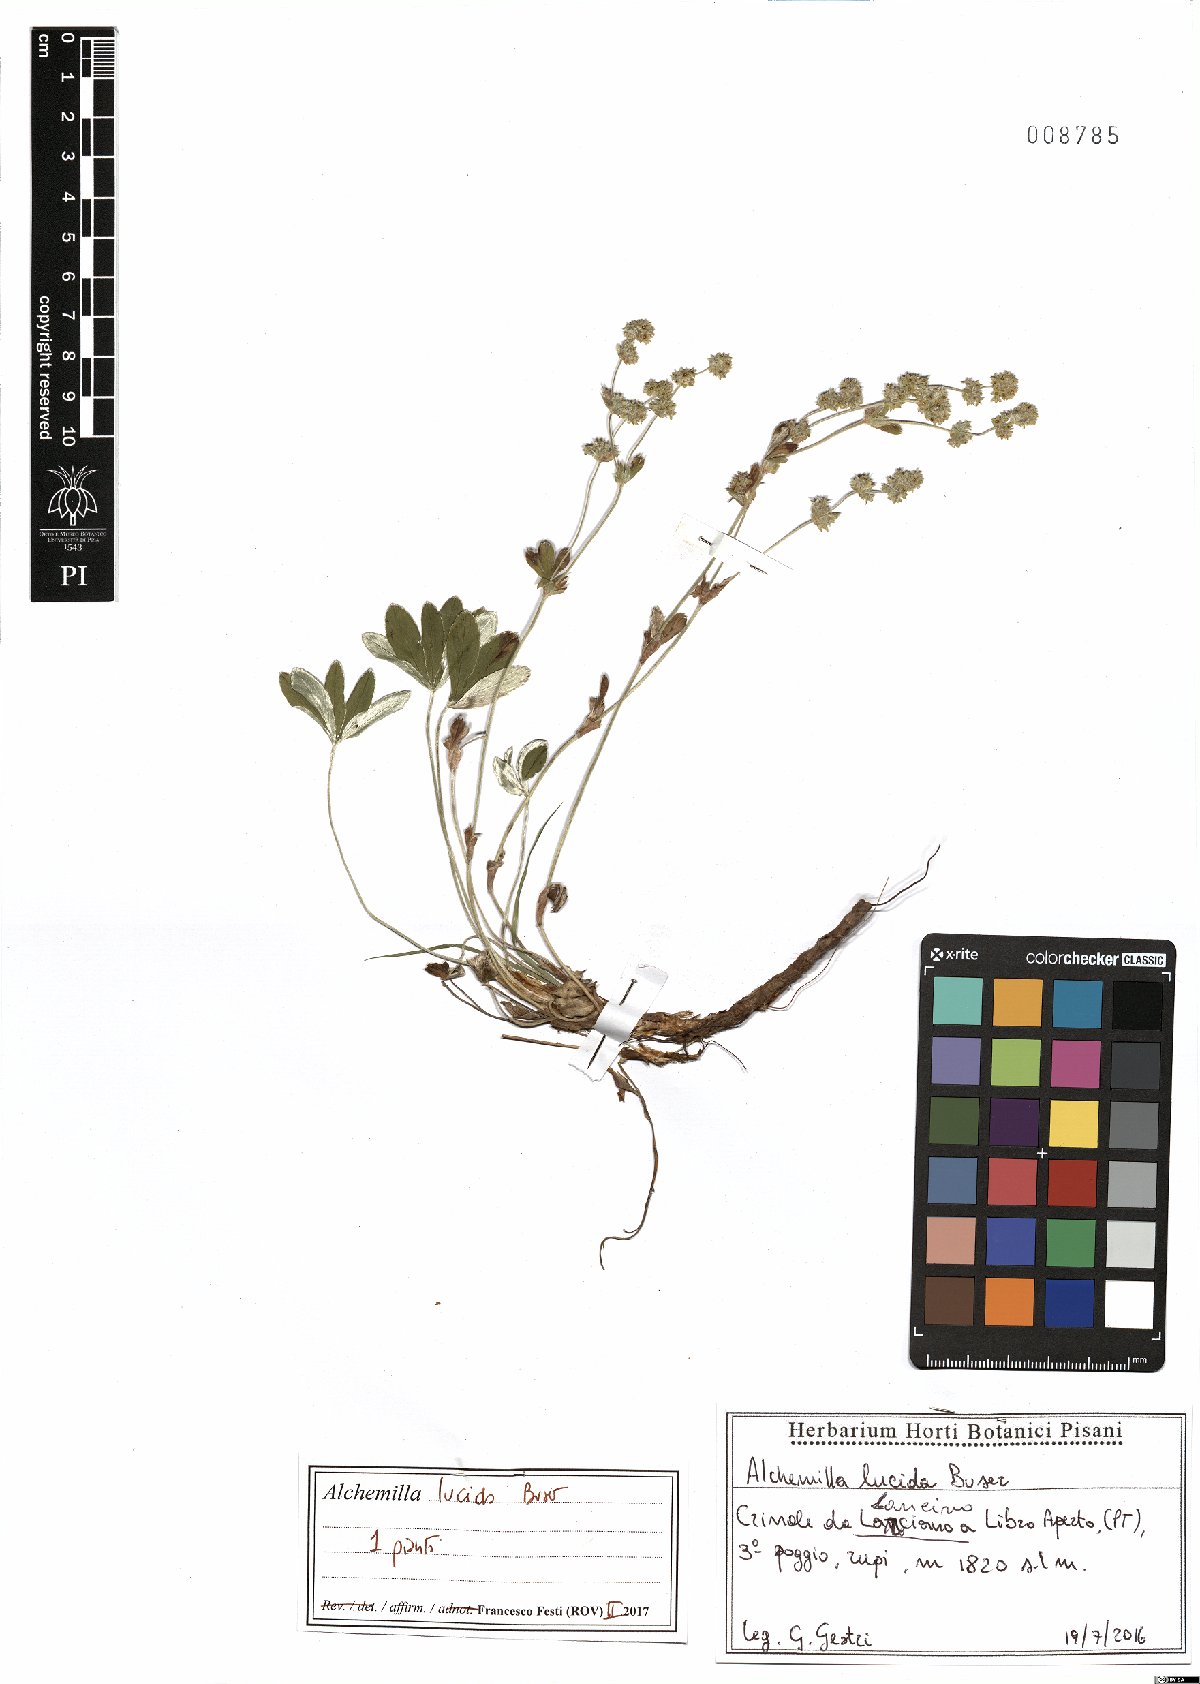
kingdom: Plantae
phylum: Tracheophyta
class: Magnoliopsida
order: Rosales
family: Rosaceae
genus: Alchemilla
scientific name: Alchemilla lucida
